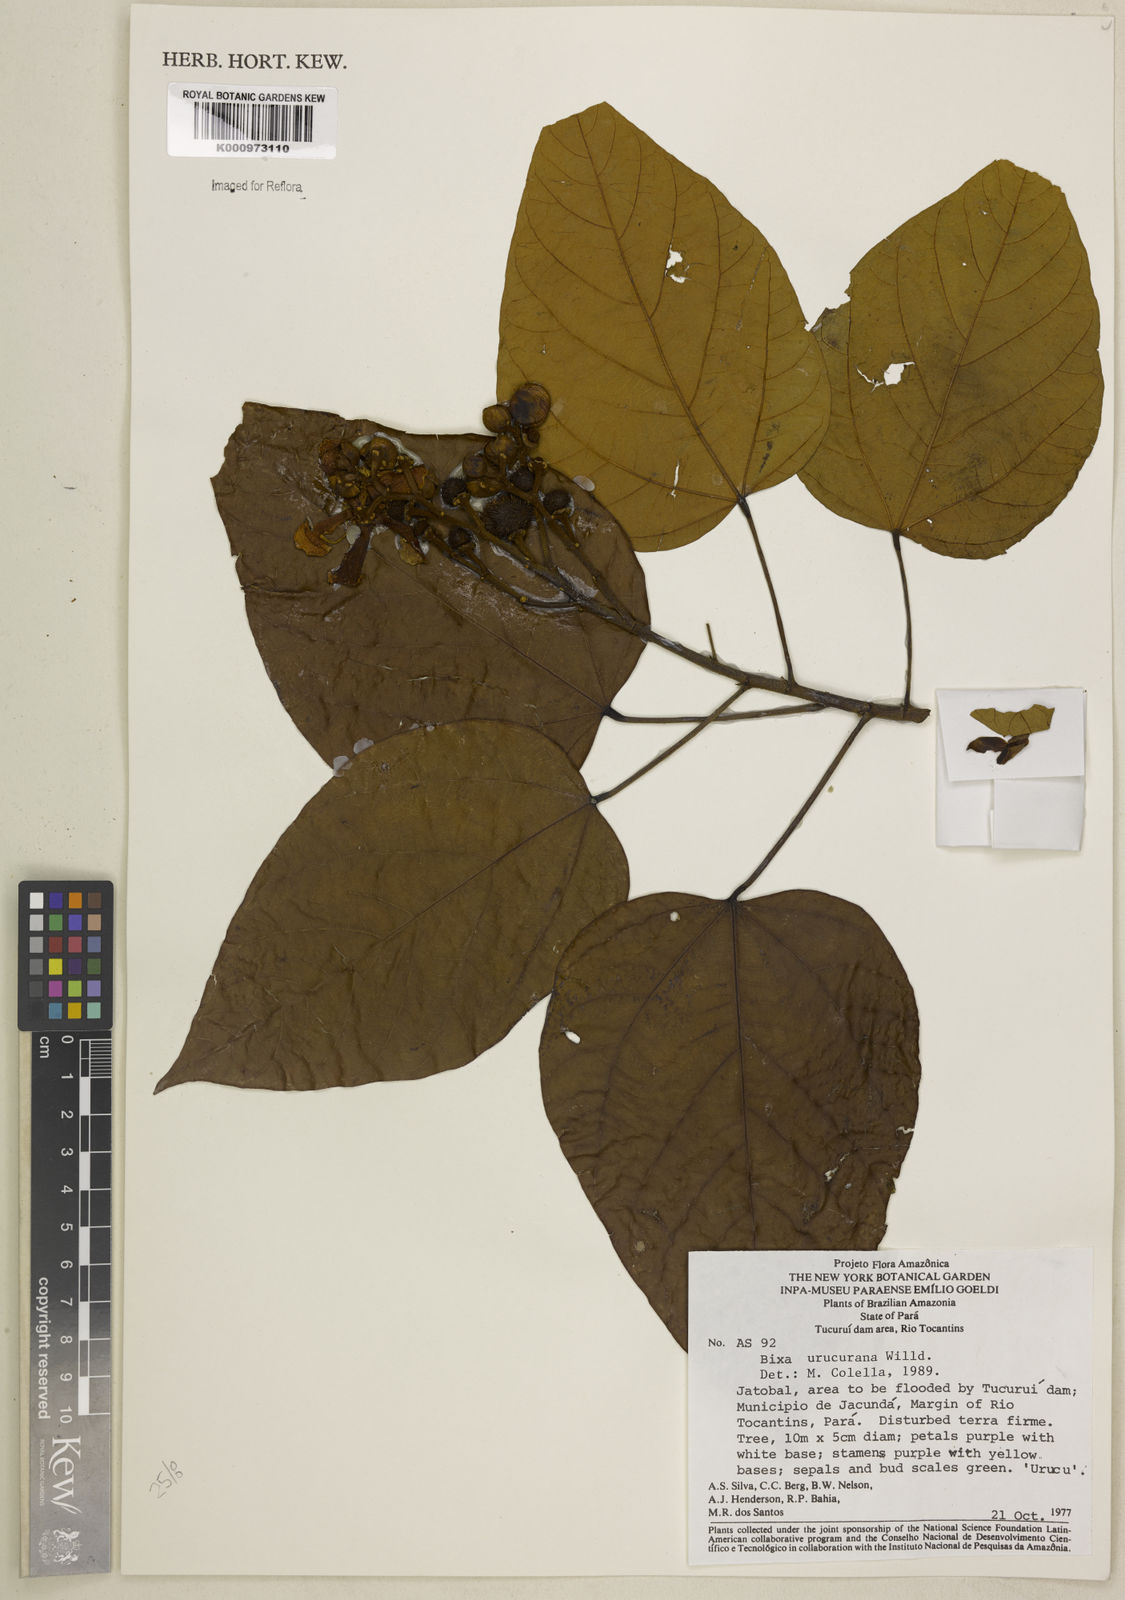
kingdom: Plantae
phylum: Tracheophyta
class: Magnoliopsida
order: Malvales
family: Bixaceae
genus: Bixa
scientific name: Bixa urucurana
